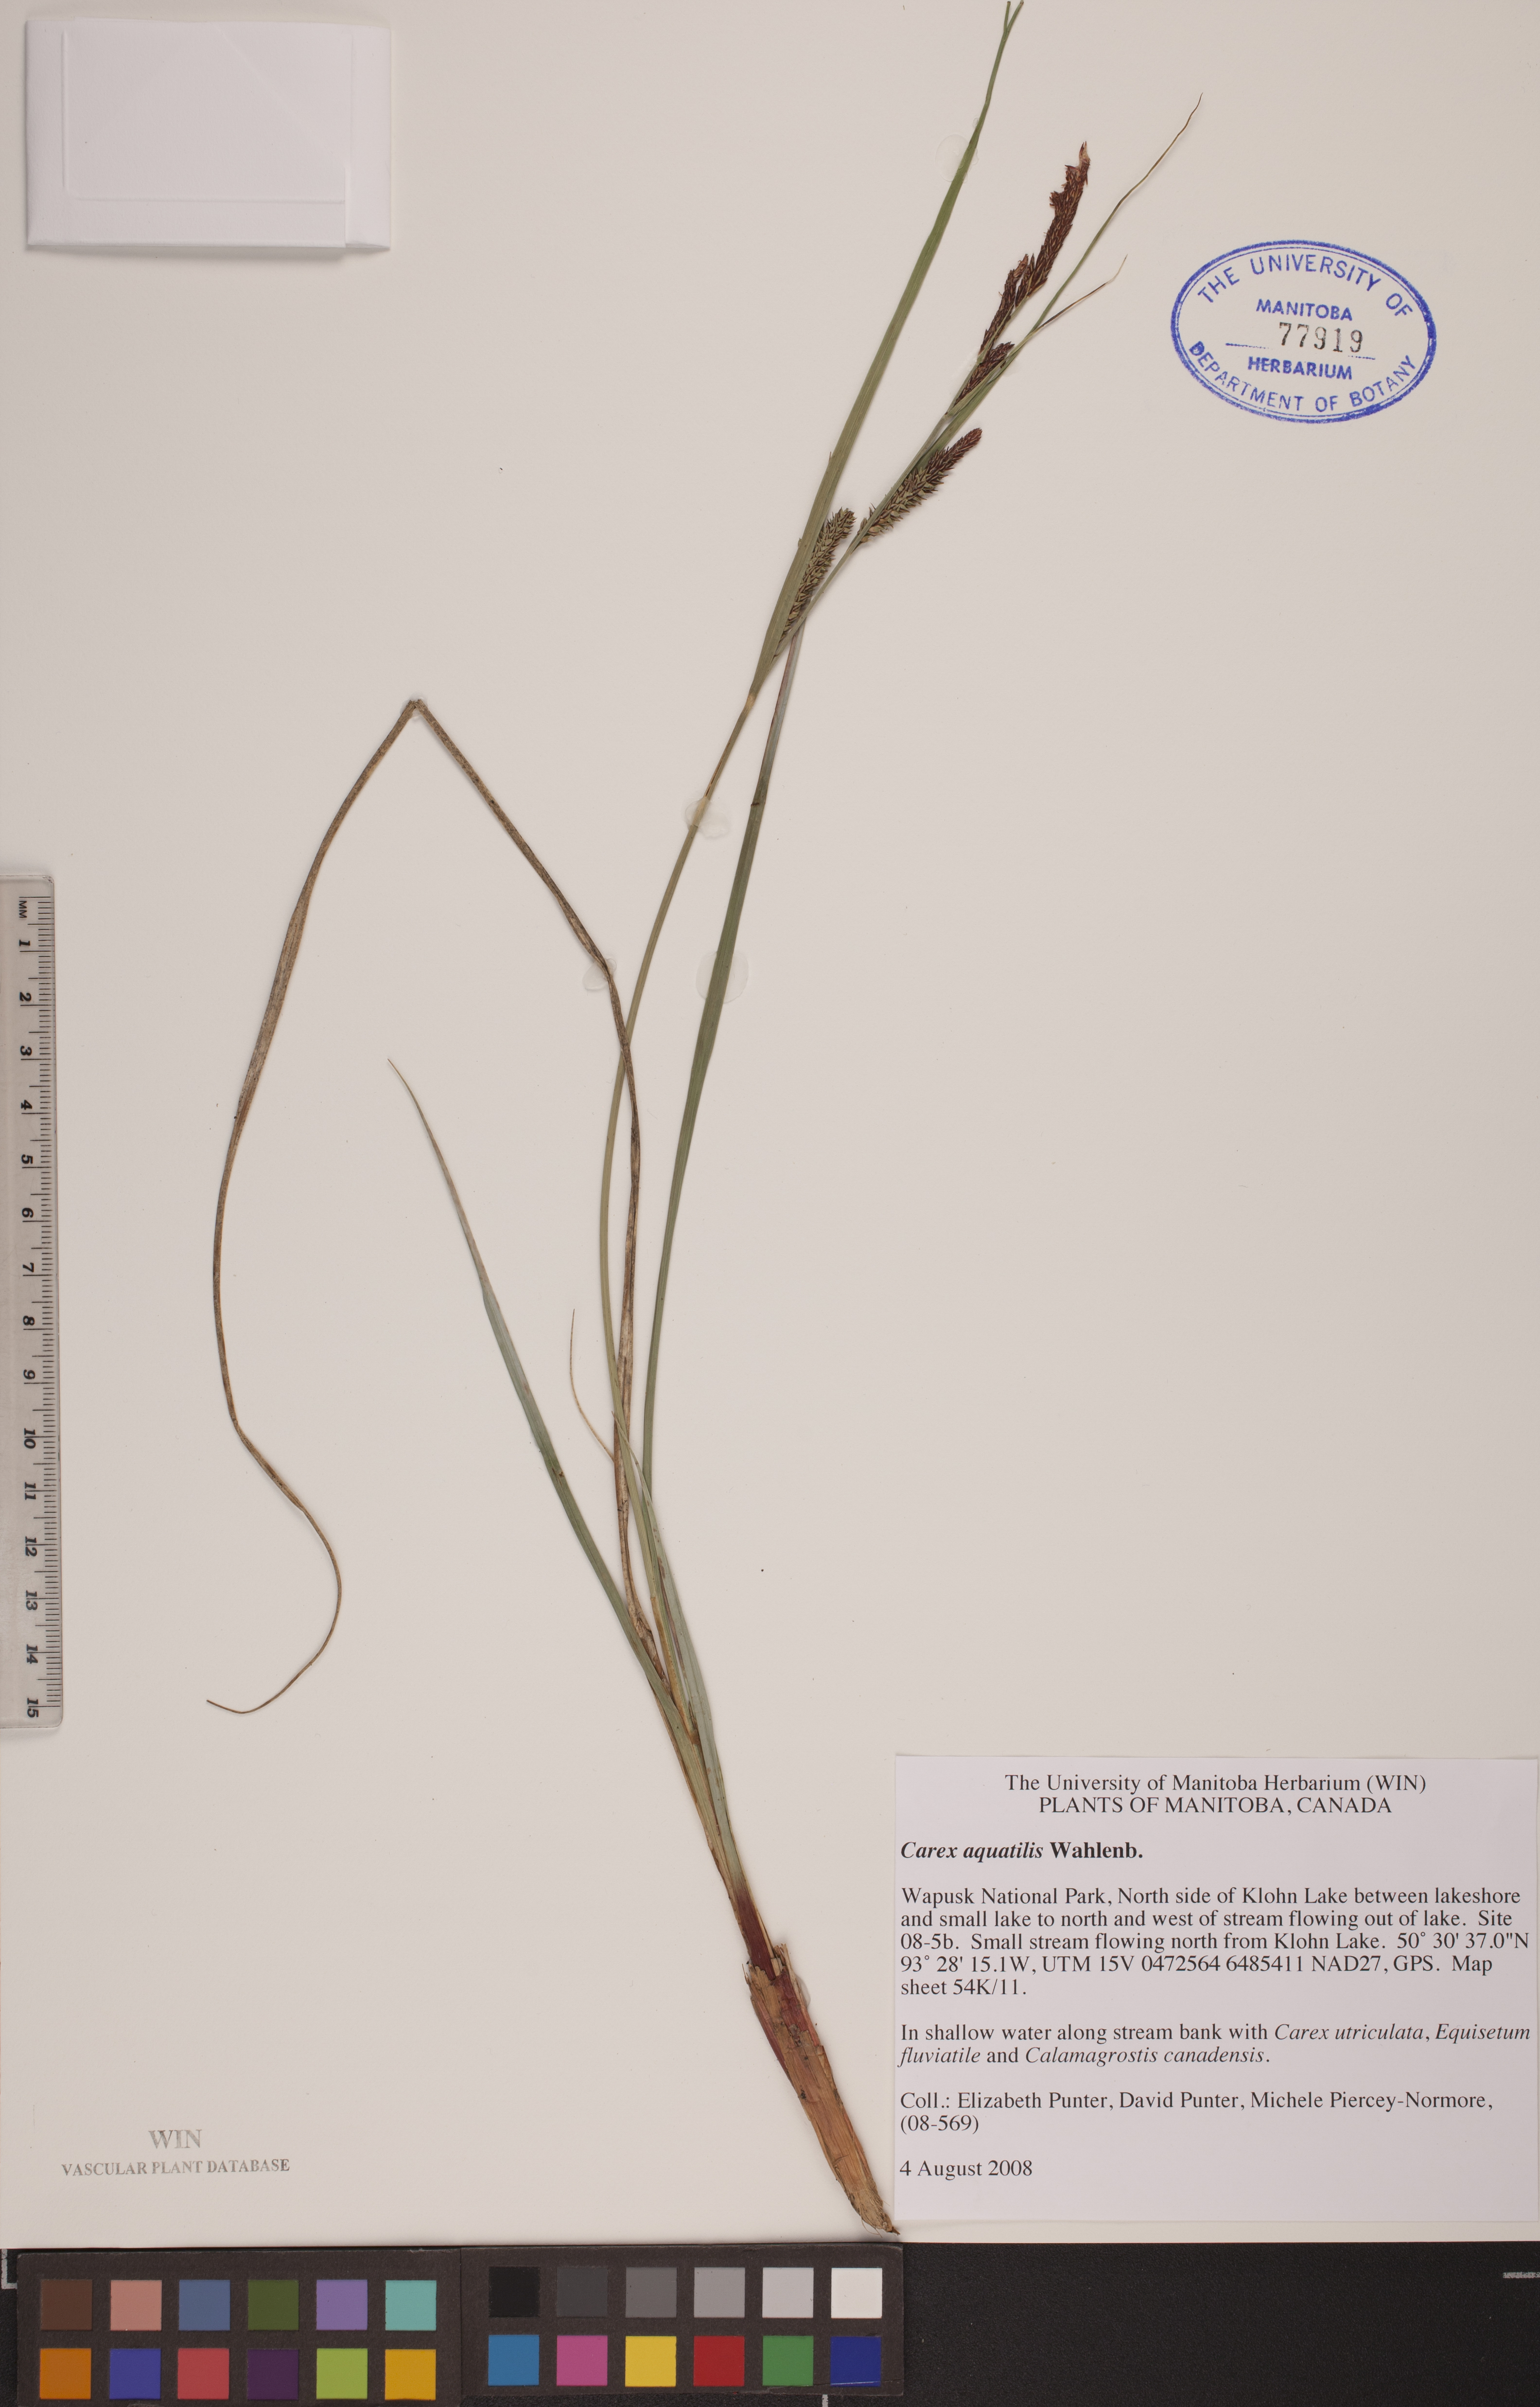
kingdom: Plantae
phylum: Tracheophyta
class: Liliopsida
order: Poales
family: Cyperaceae
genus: Carex
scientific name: Carex aquatilis
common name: Water sedge
